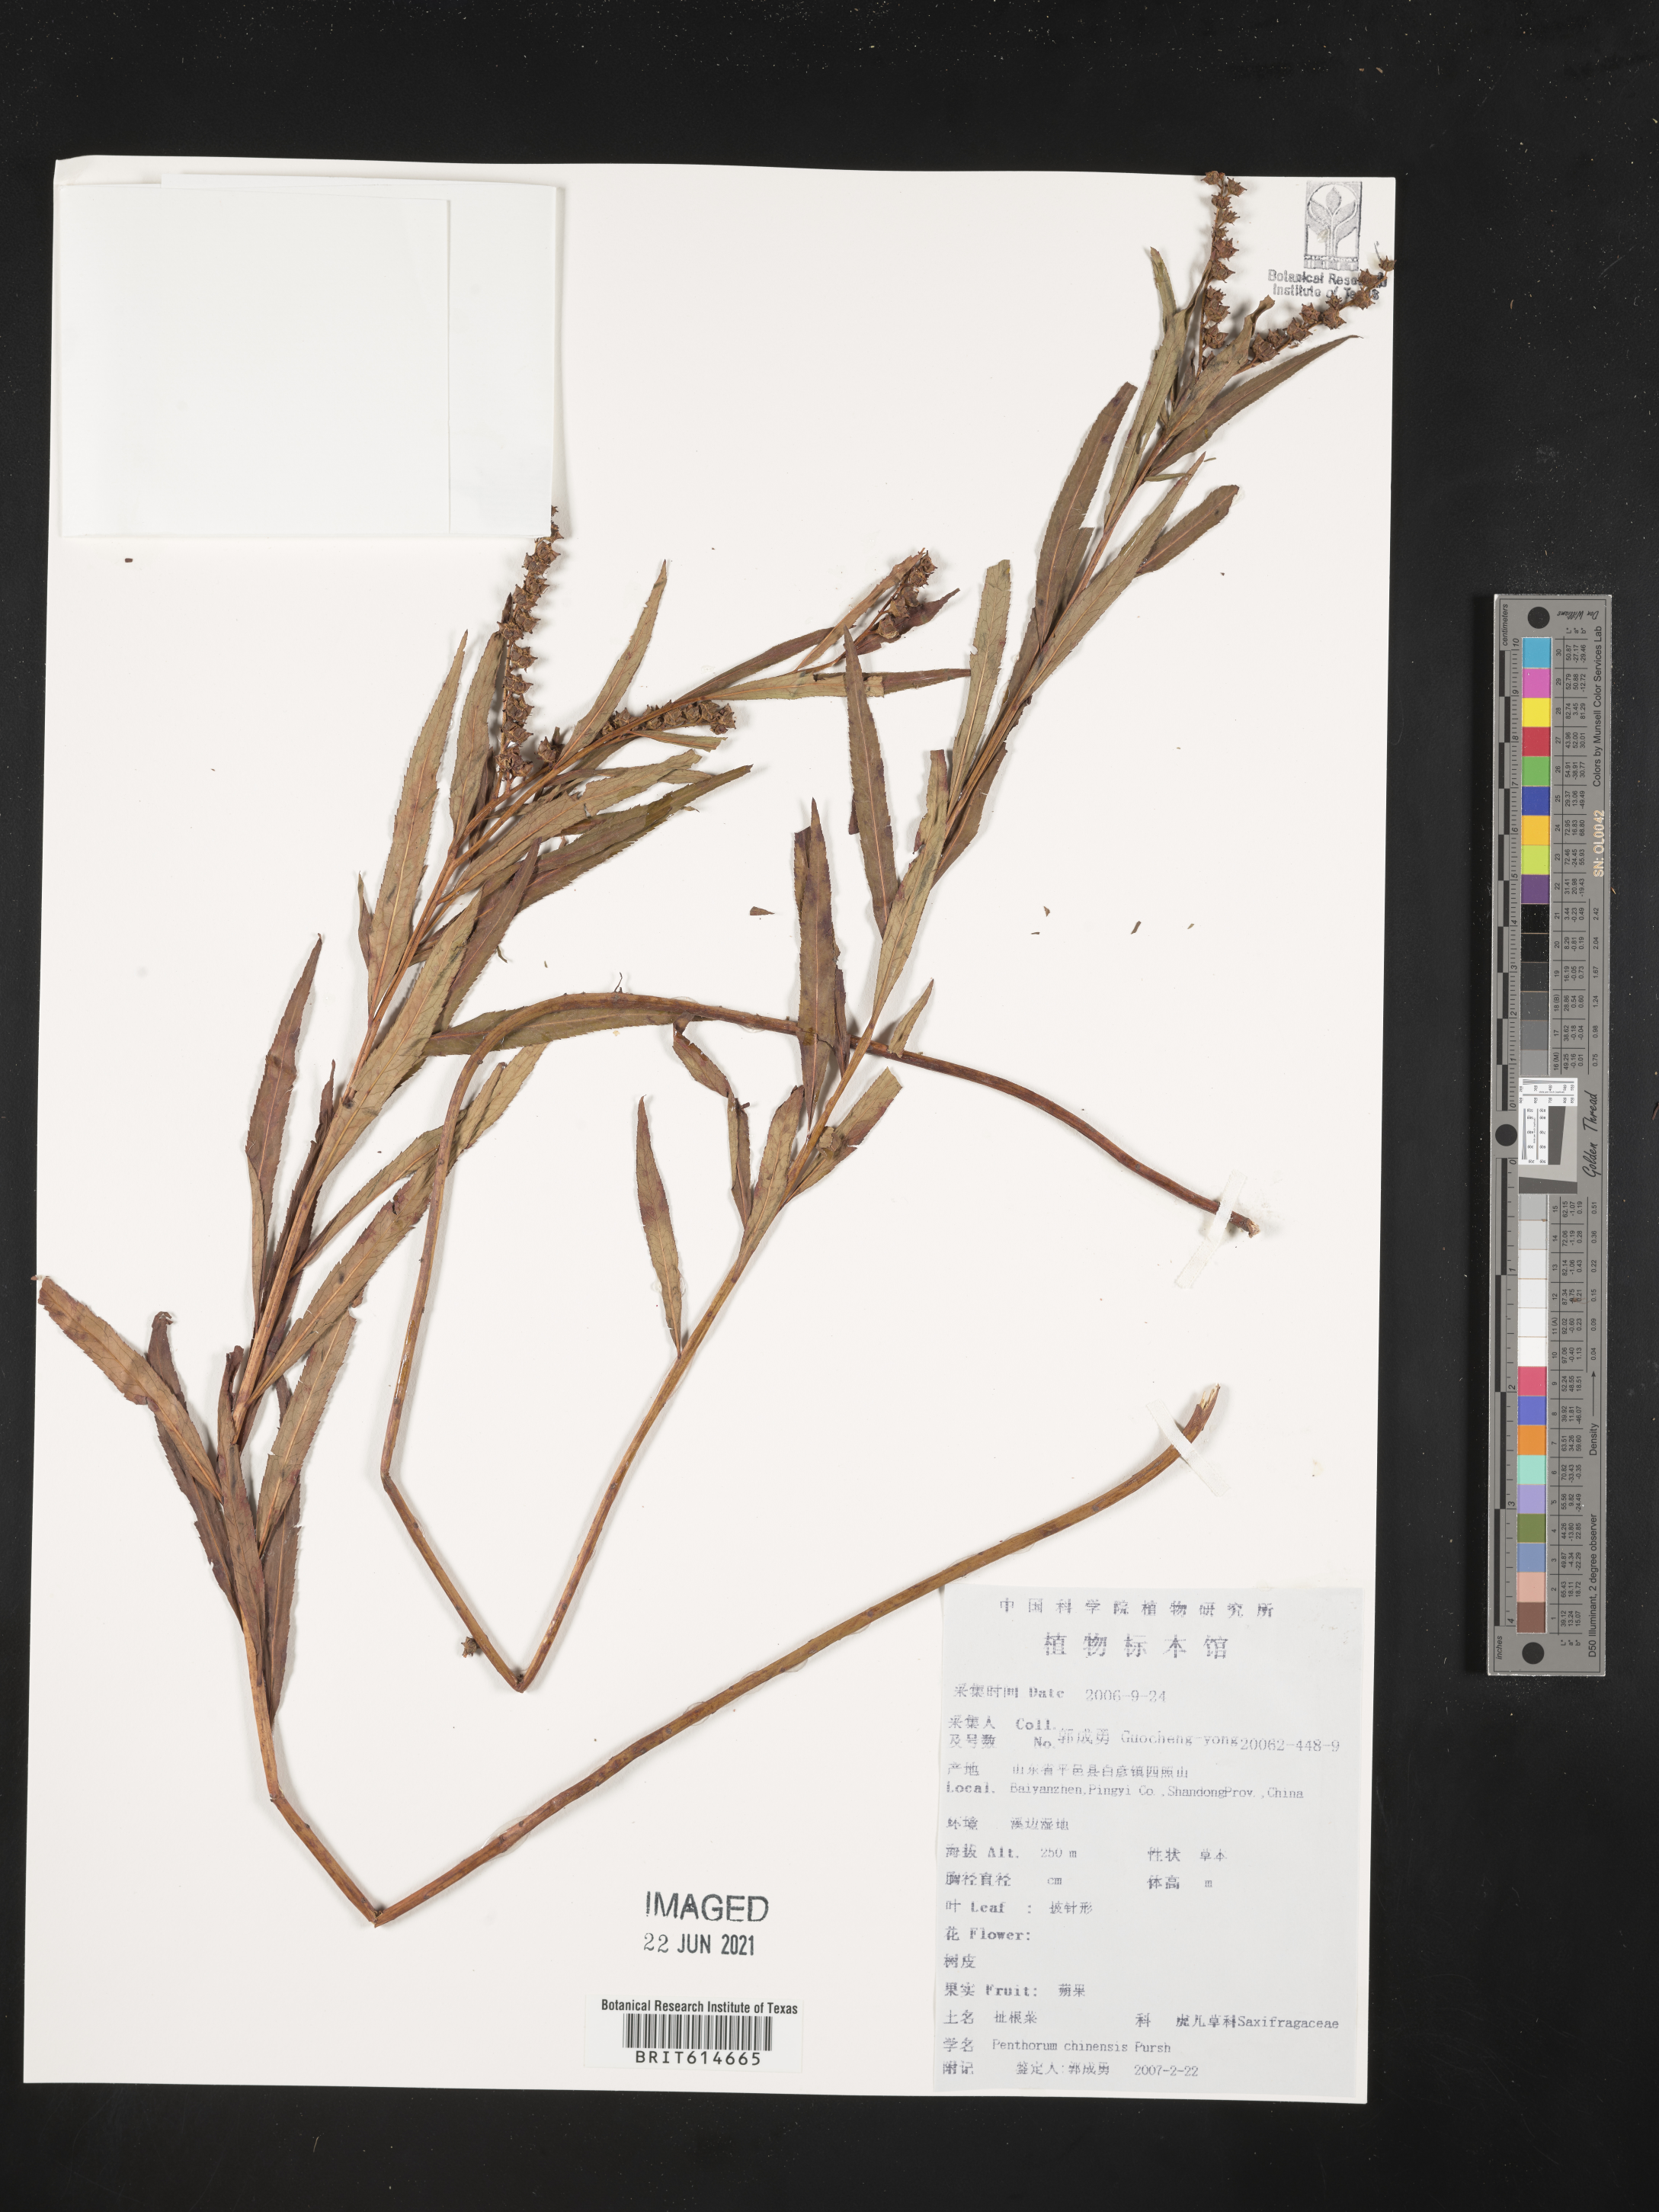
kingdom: Plantae
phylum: Tracheophyta
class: Magnoliopsida
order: Saxifragales
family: Penthoraceae
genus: Penthorum
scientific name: Penthorum chinense
